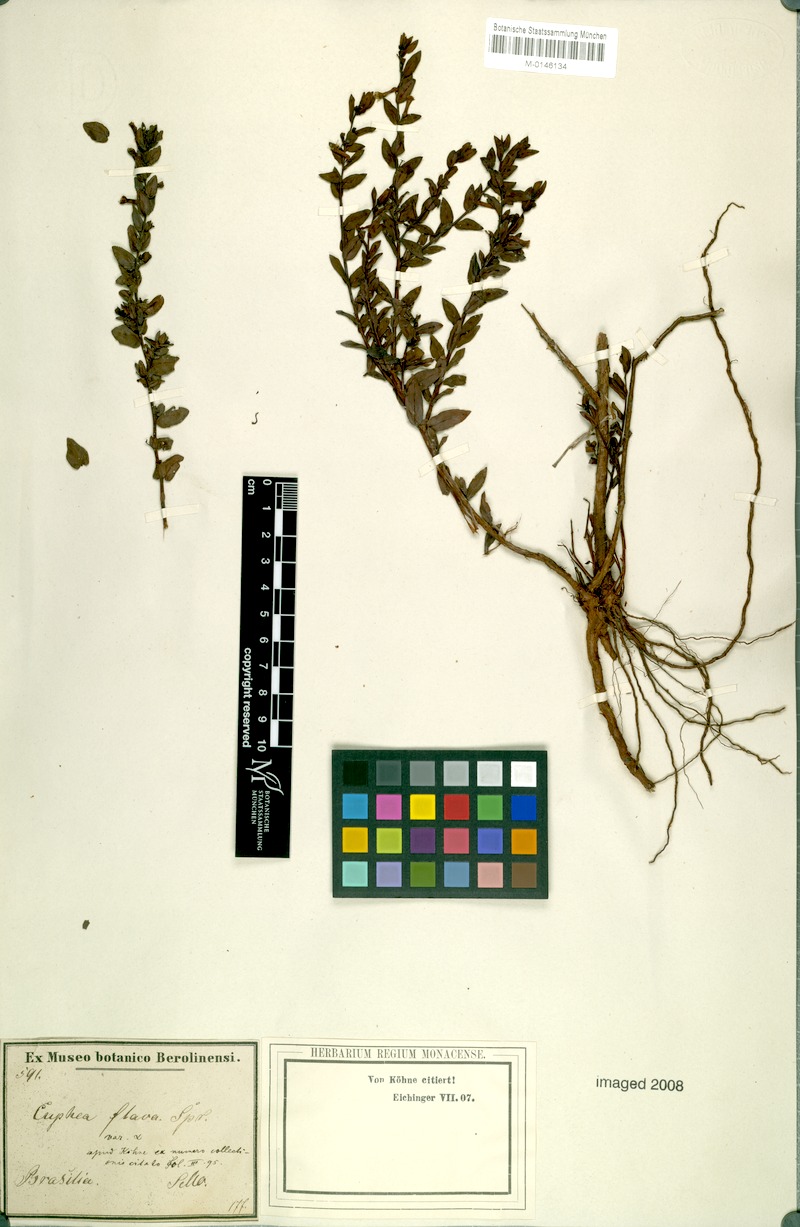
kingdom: Plantae
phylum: Tracheophyta
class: Magnoliopsida
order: Myrtales
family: Lythraceae
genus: Cuphea
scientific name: Cuphea flava
